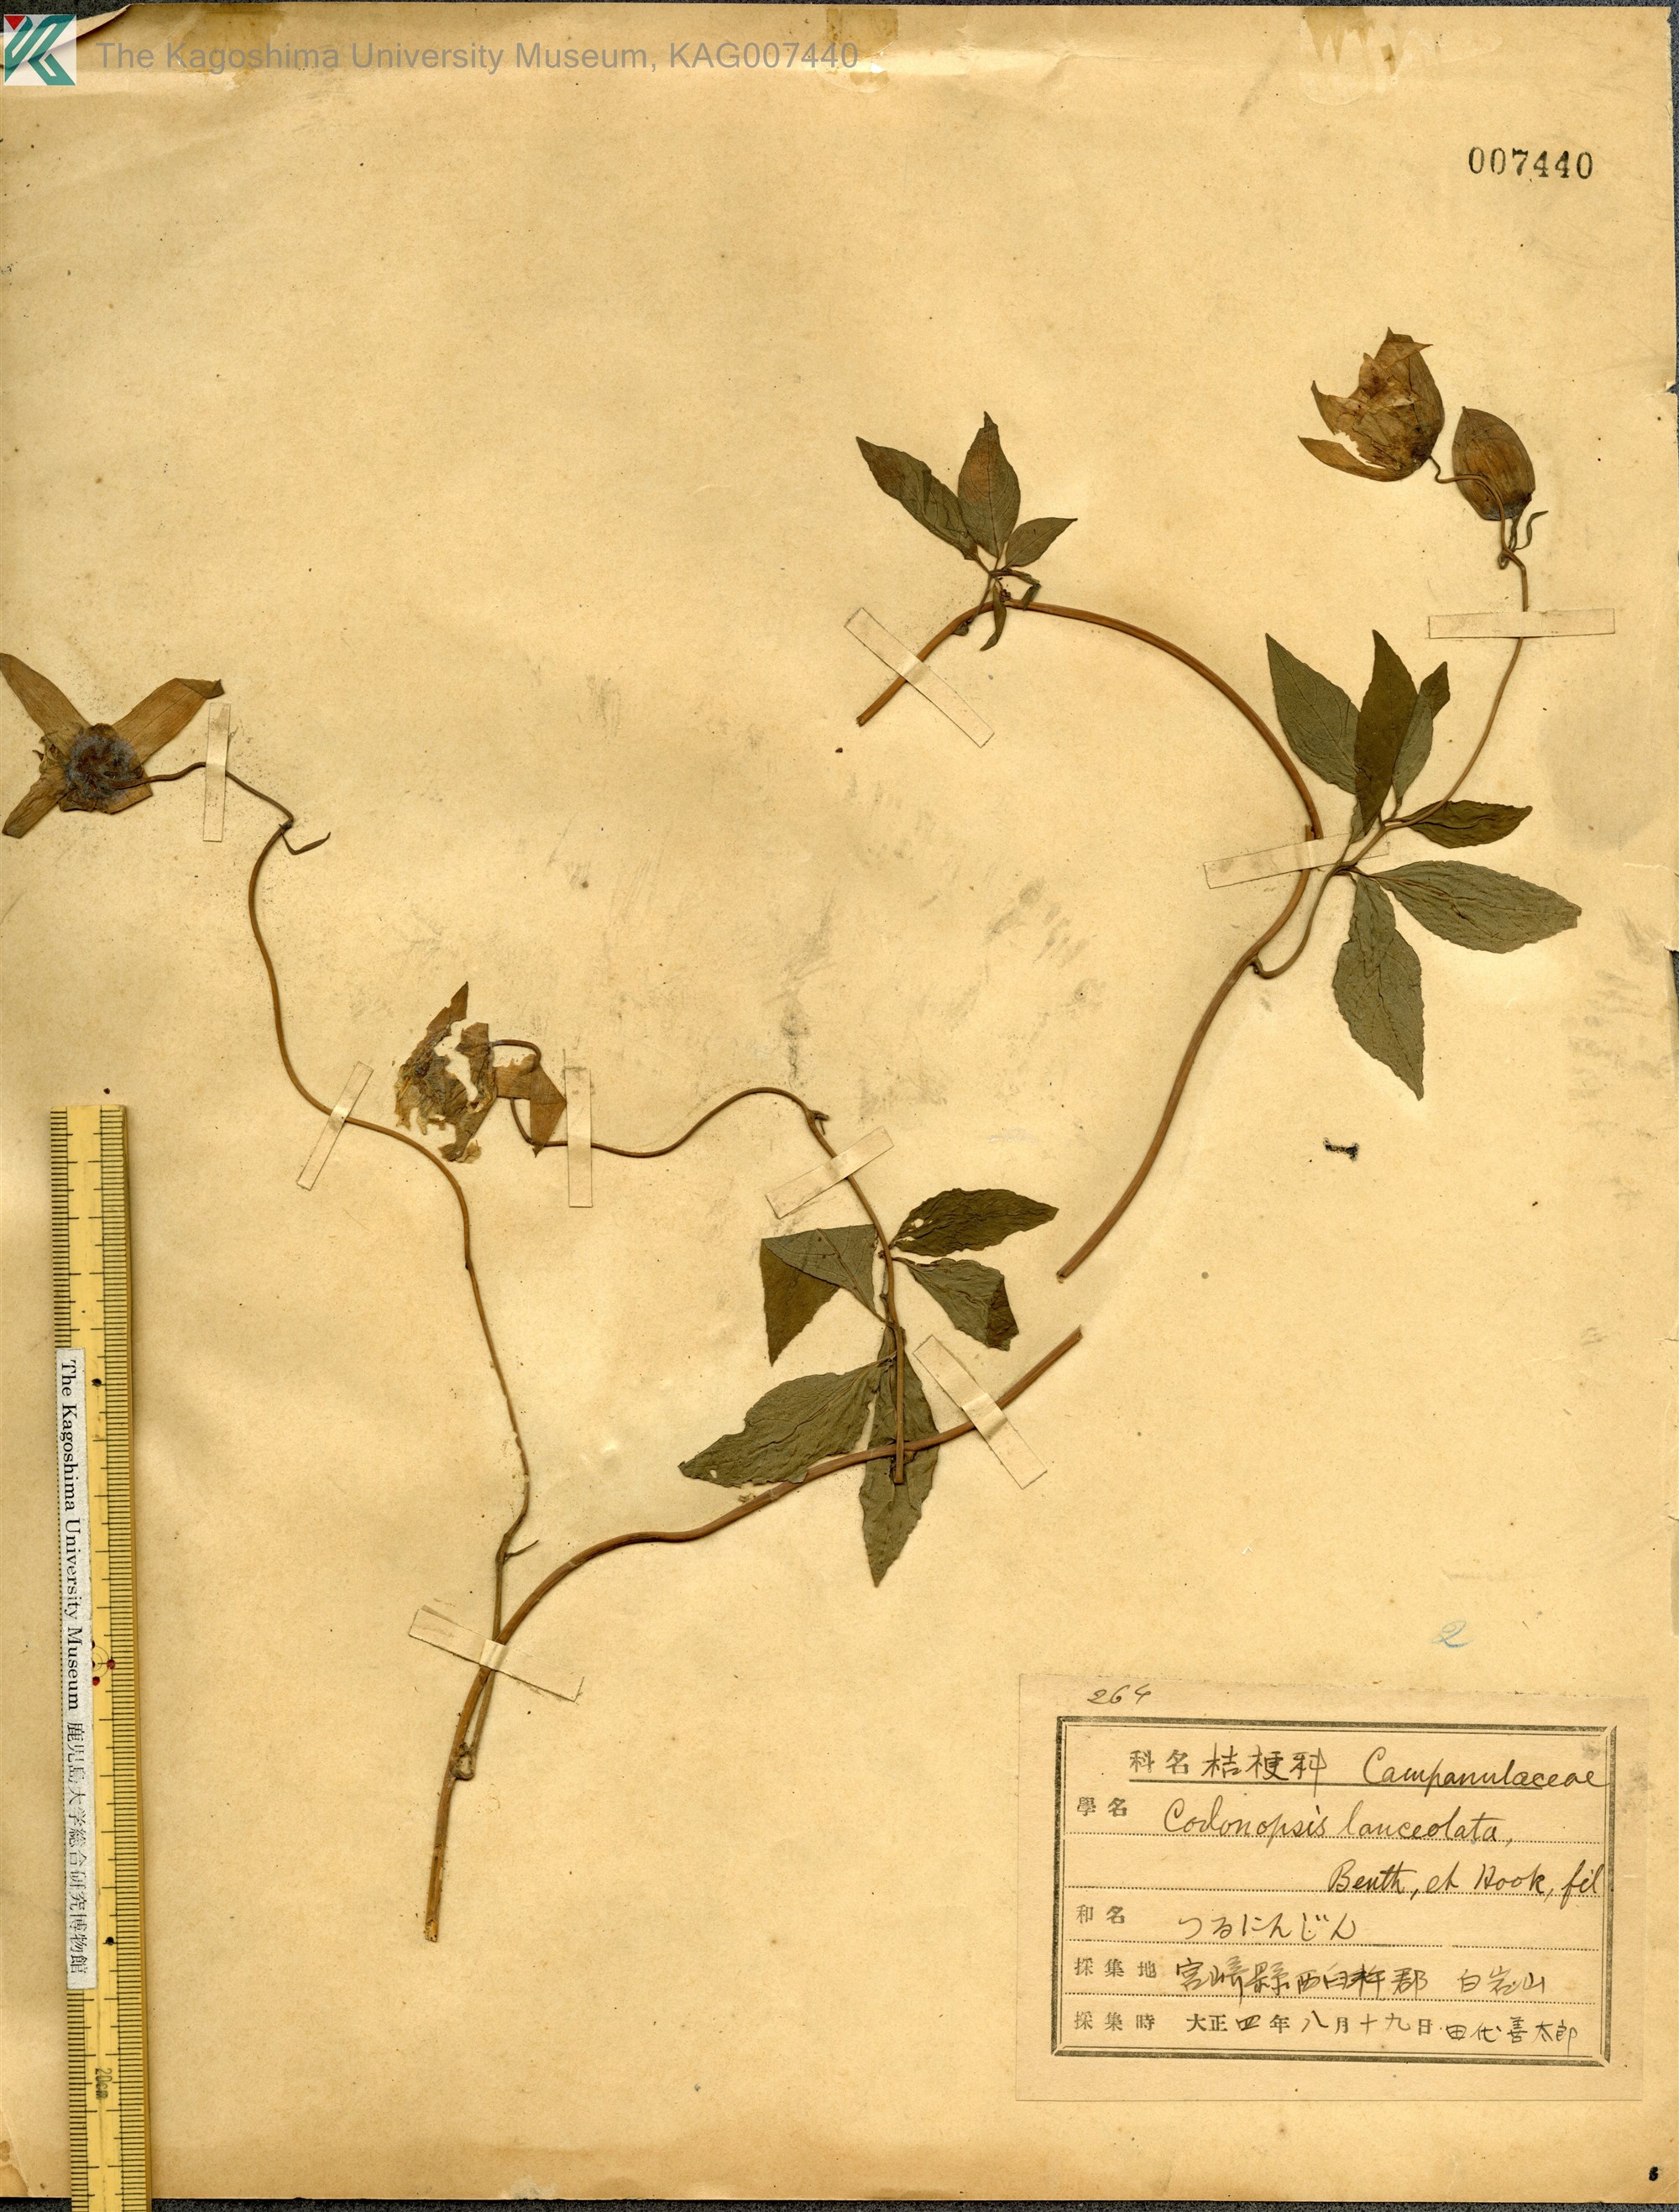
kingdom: Plantae
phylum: Tracheophyta
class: Magnoliopsida
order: Asterales
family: Campanulaceae
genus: Codonopsis
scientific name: Codonopsis lanceolata
